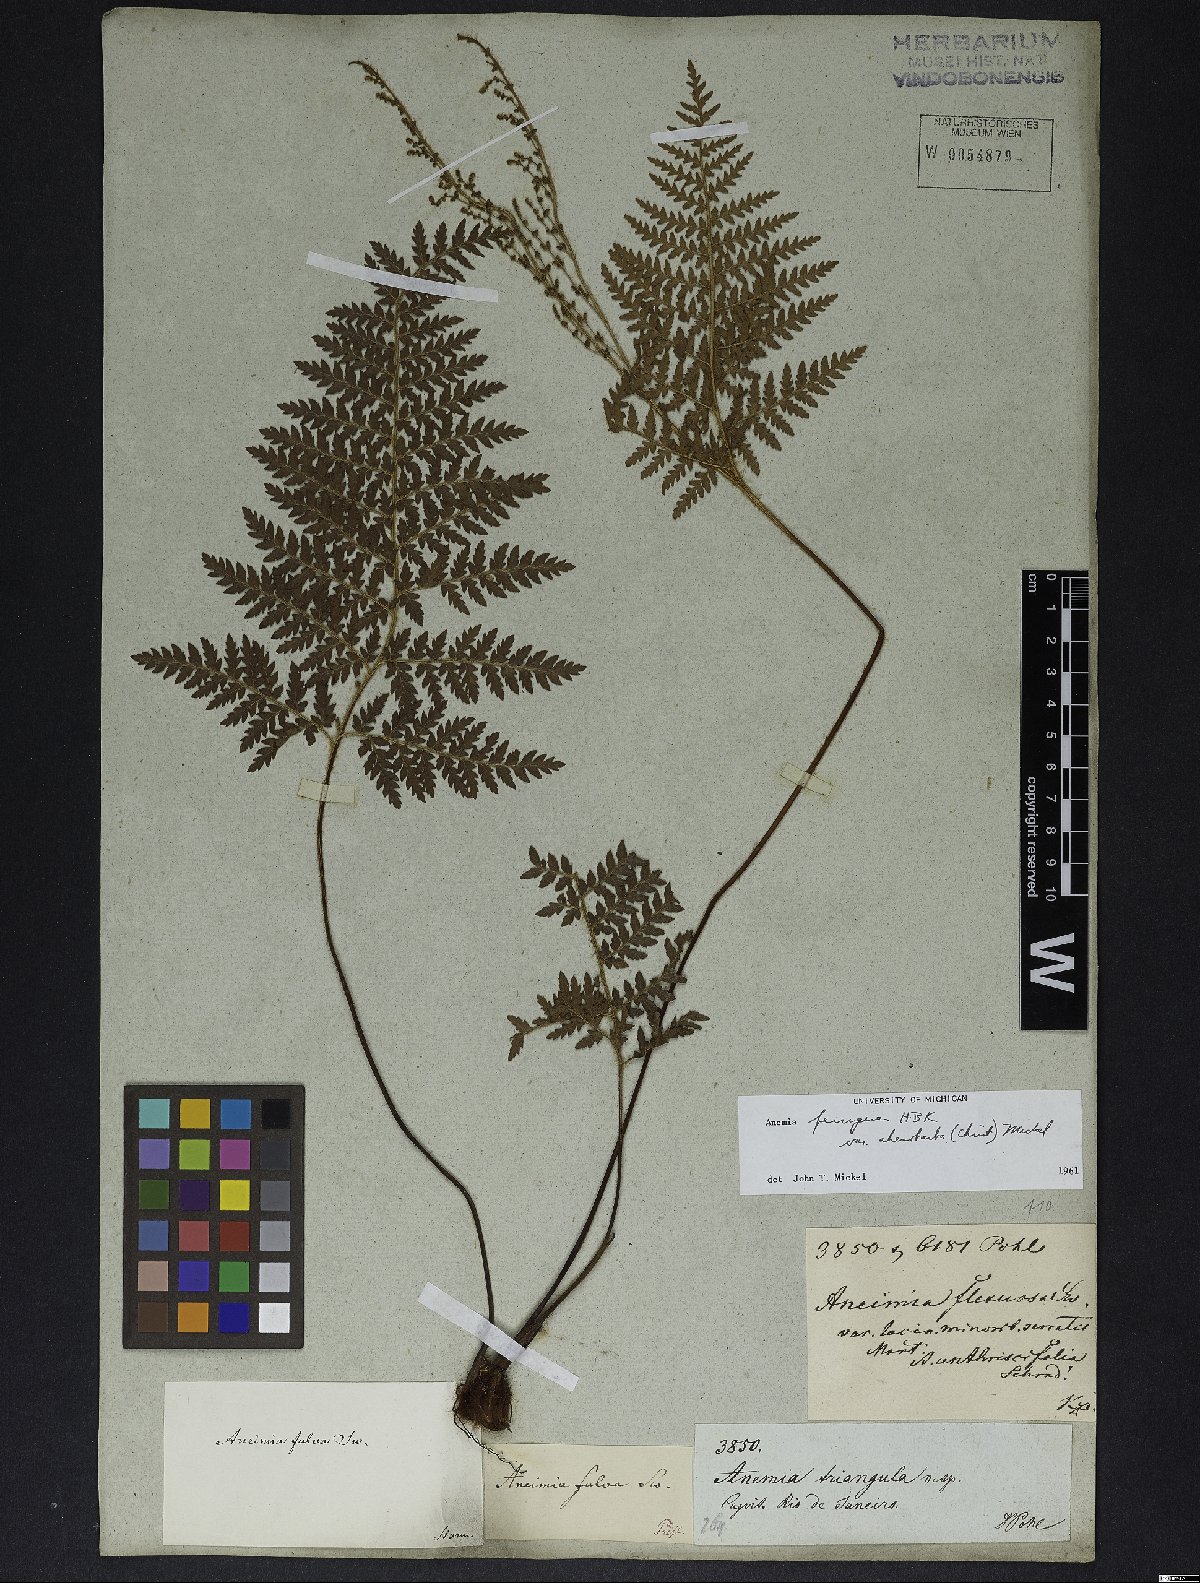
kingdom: Plantae
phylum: Tracheophyta
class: Polypodiopsida
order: Schizaeales
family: Anemiaceae
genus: Anemia
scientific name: Anemia ferruginea
